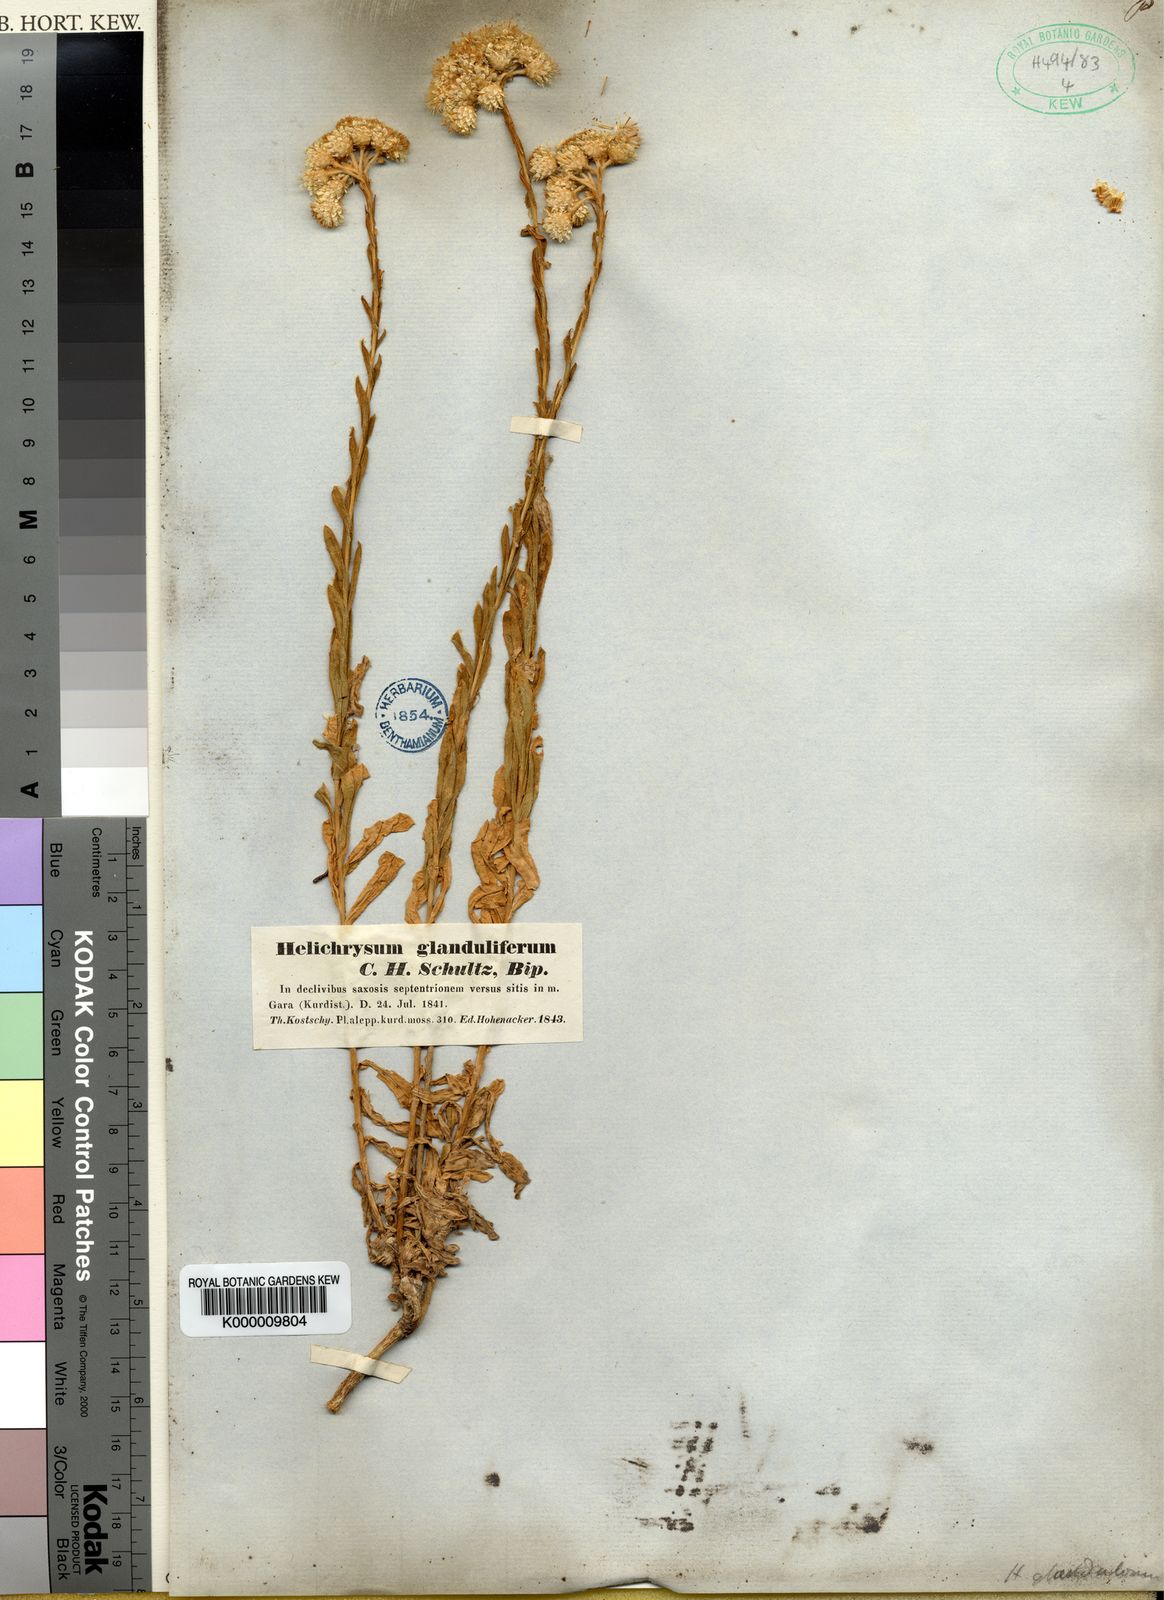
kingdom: Plantae
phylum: Tracheophyta
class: Magnoliopsida
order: Asterales
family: Asteraceae
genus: Helichrysum
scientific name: Helichrysum armenium
